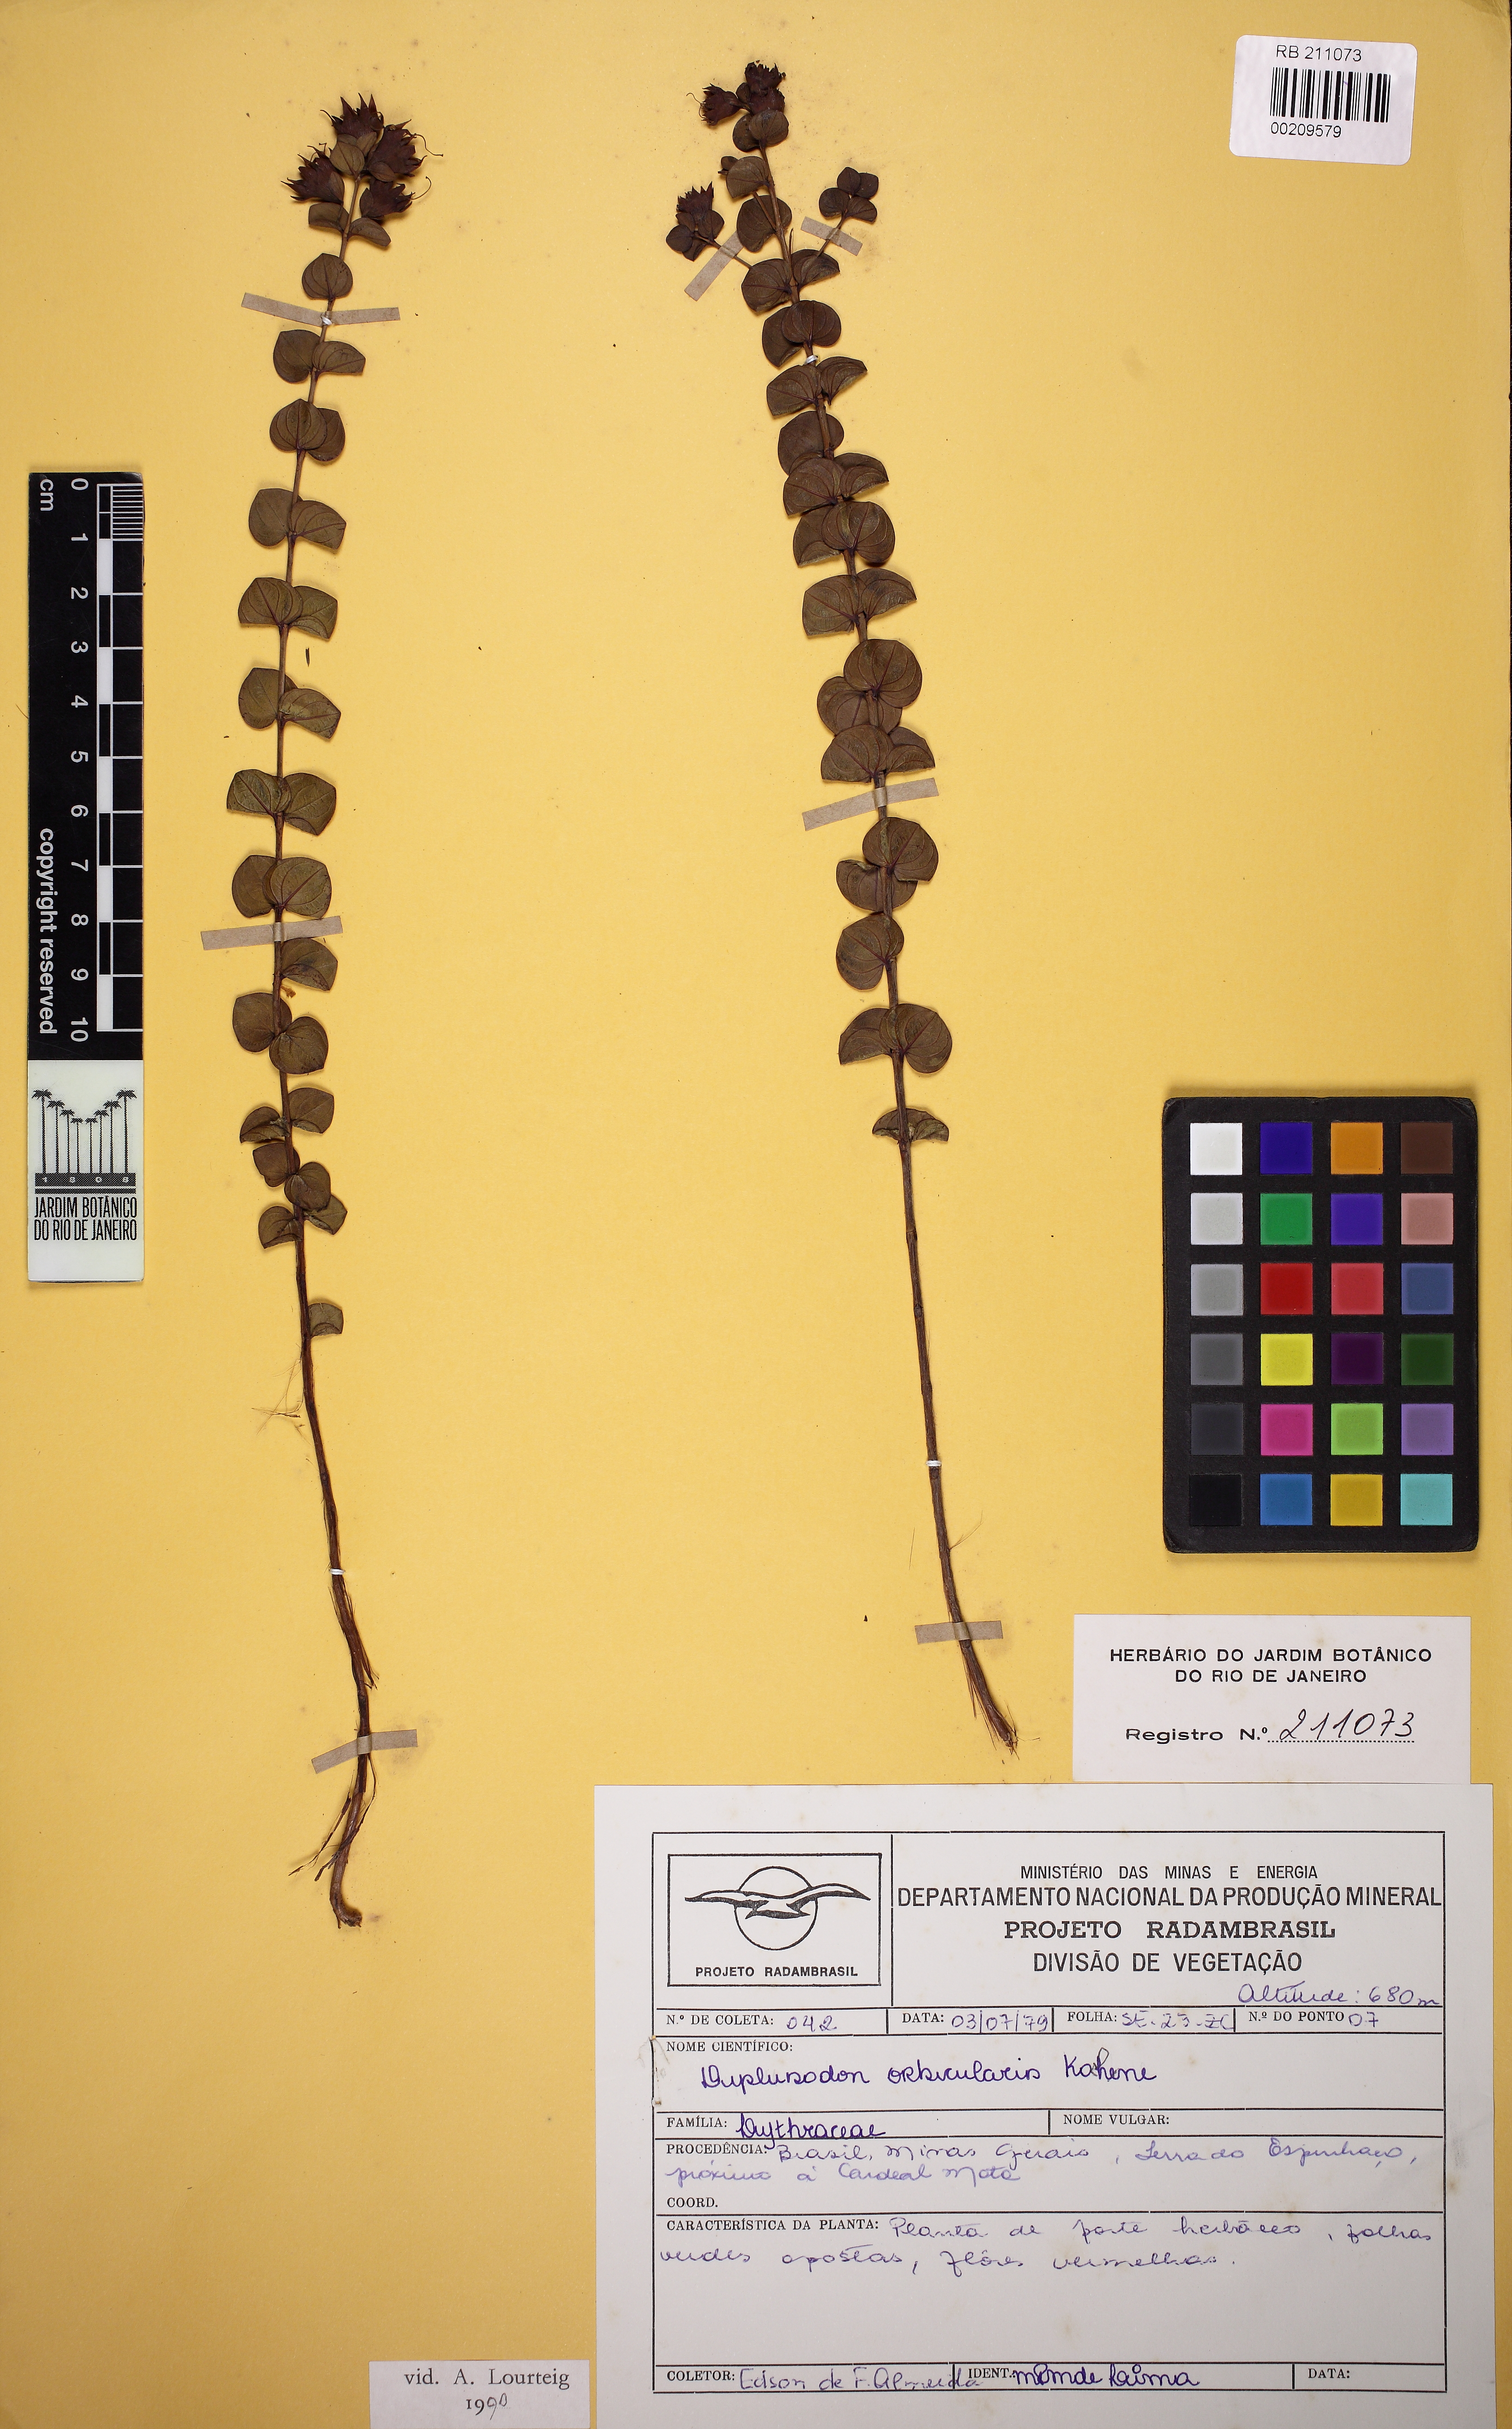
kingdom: Plantae
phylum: Tracheophyta
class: Magnoliopsida
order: Myrtales
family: Lythraceae
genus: Diplusodon
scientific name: Diplusodon orbicularis
